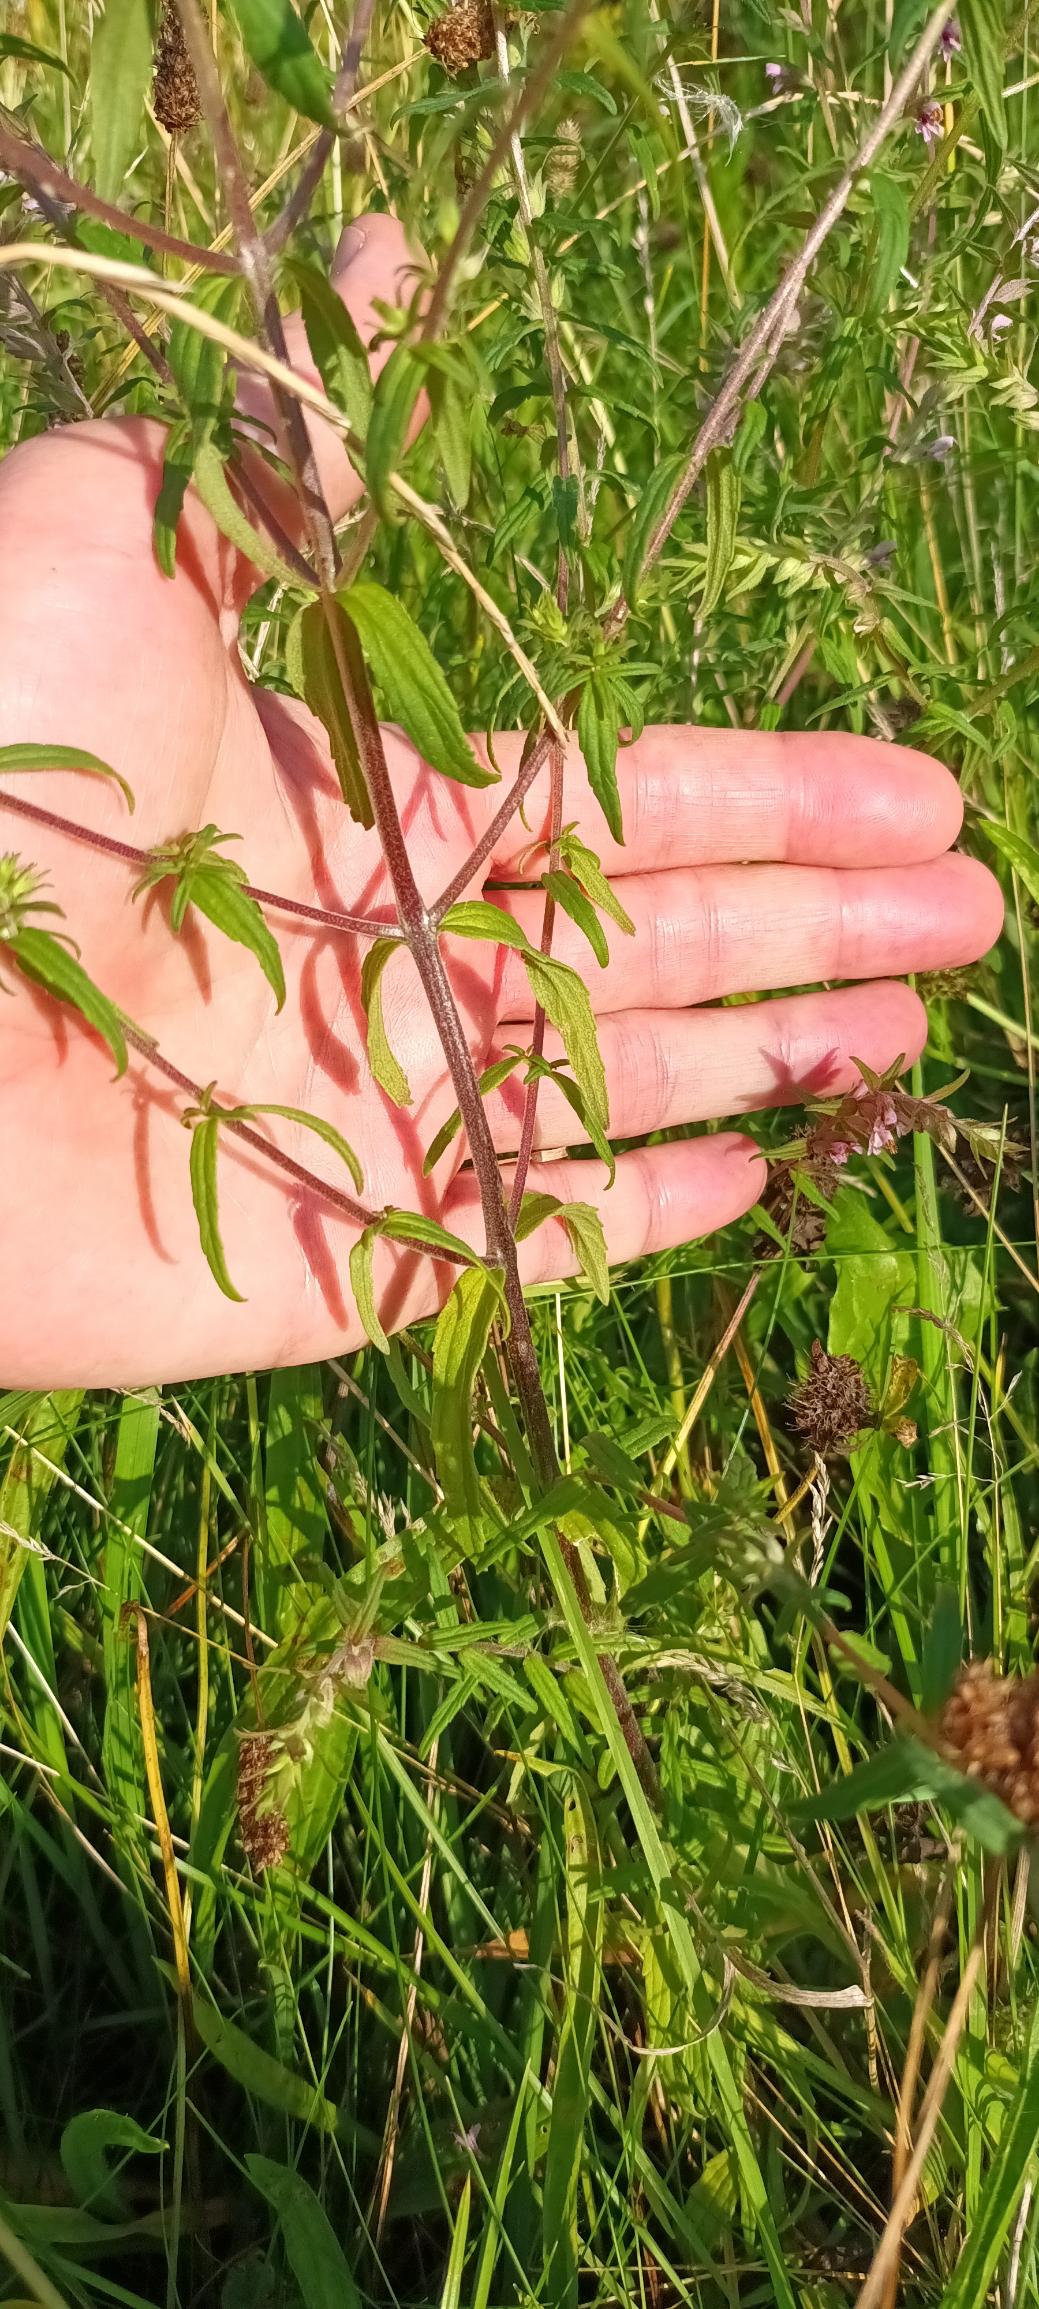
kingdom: Plantae
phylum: Tracheophyta
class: Magnoliopsida
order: Lamiales
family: Orobanchaceae
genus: Odontites
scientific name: Odontites vulgaris
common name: Høst-rødtop
